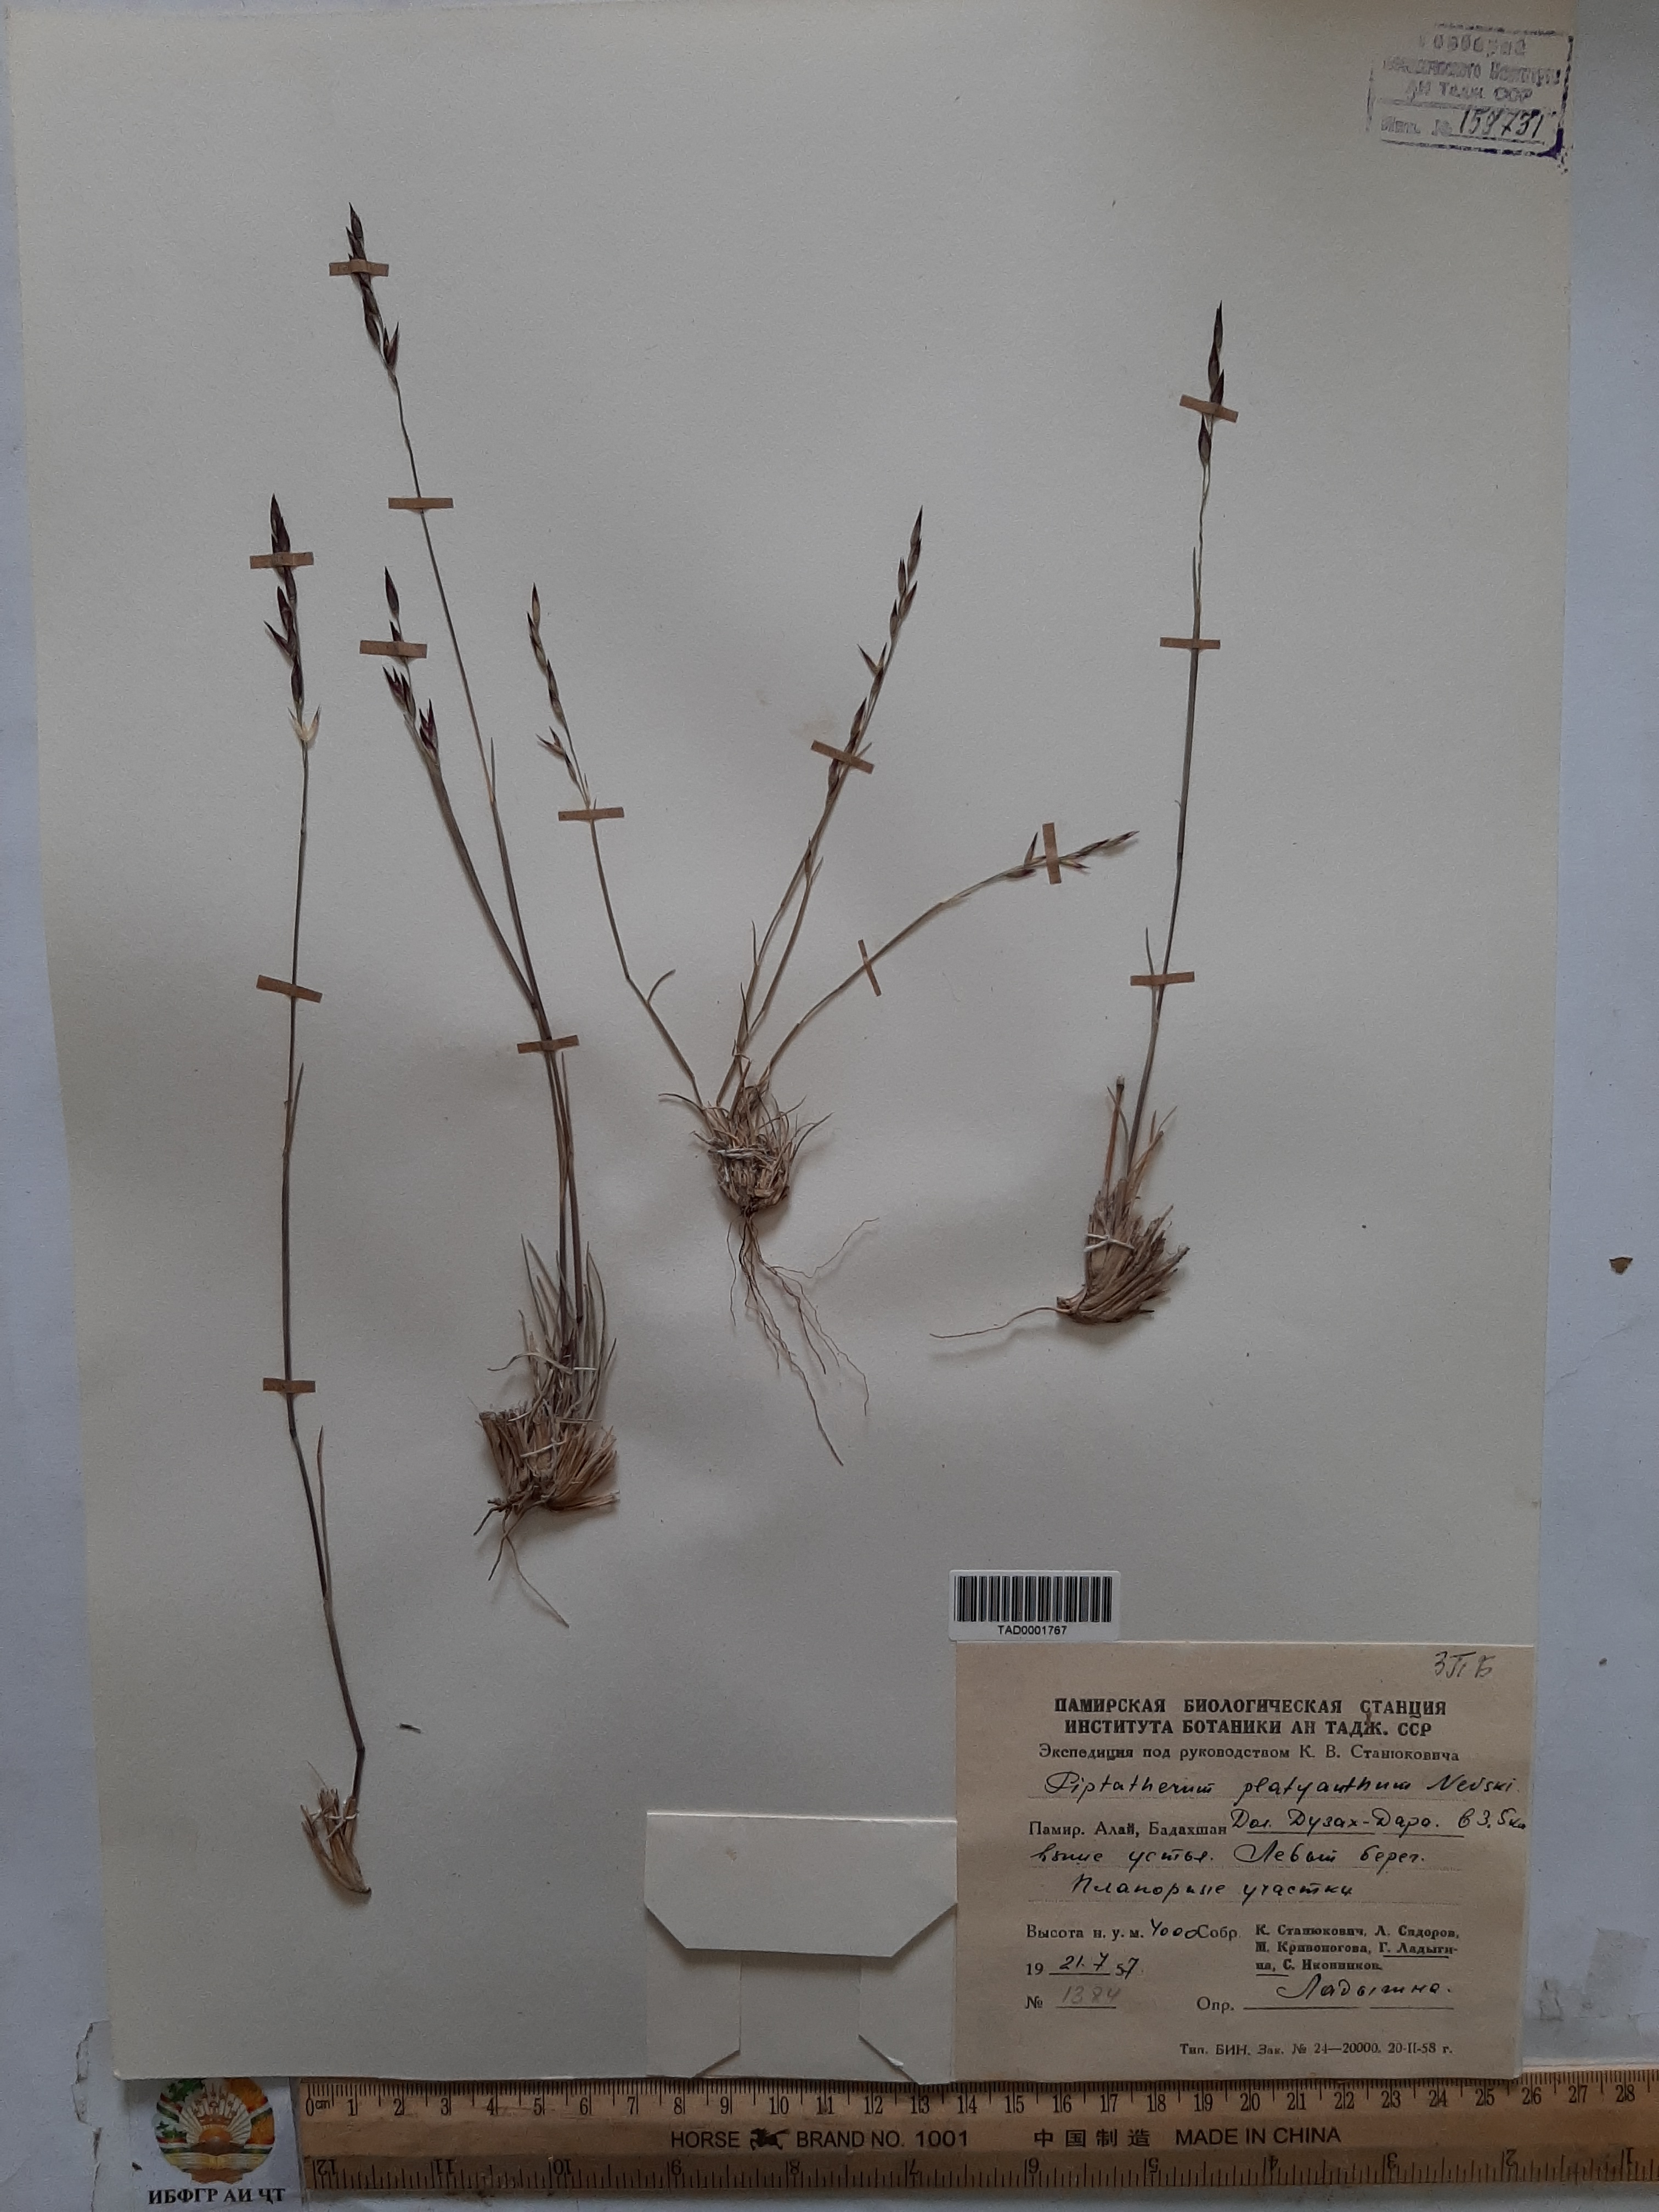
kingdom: Plantae
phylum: Tracheophyta
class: Liliopsida
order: Poales
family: Poaceae
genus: Piptatherum
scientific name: Piptatherum platyanthum
